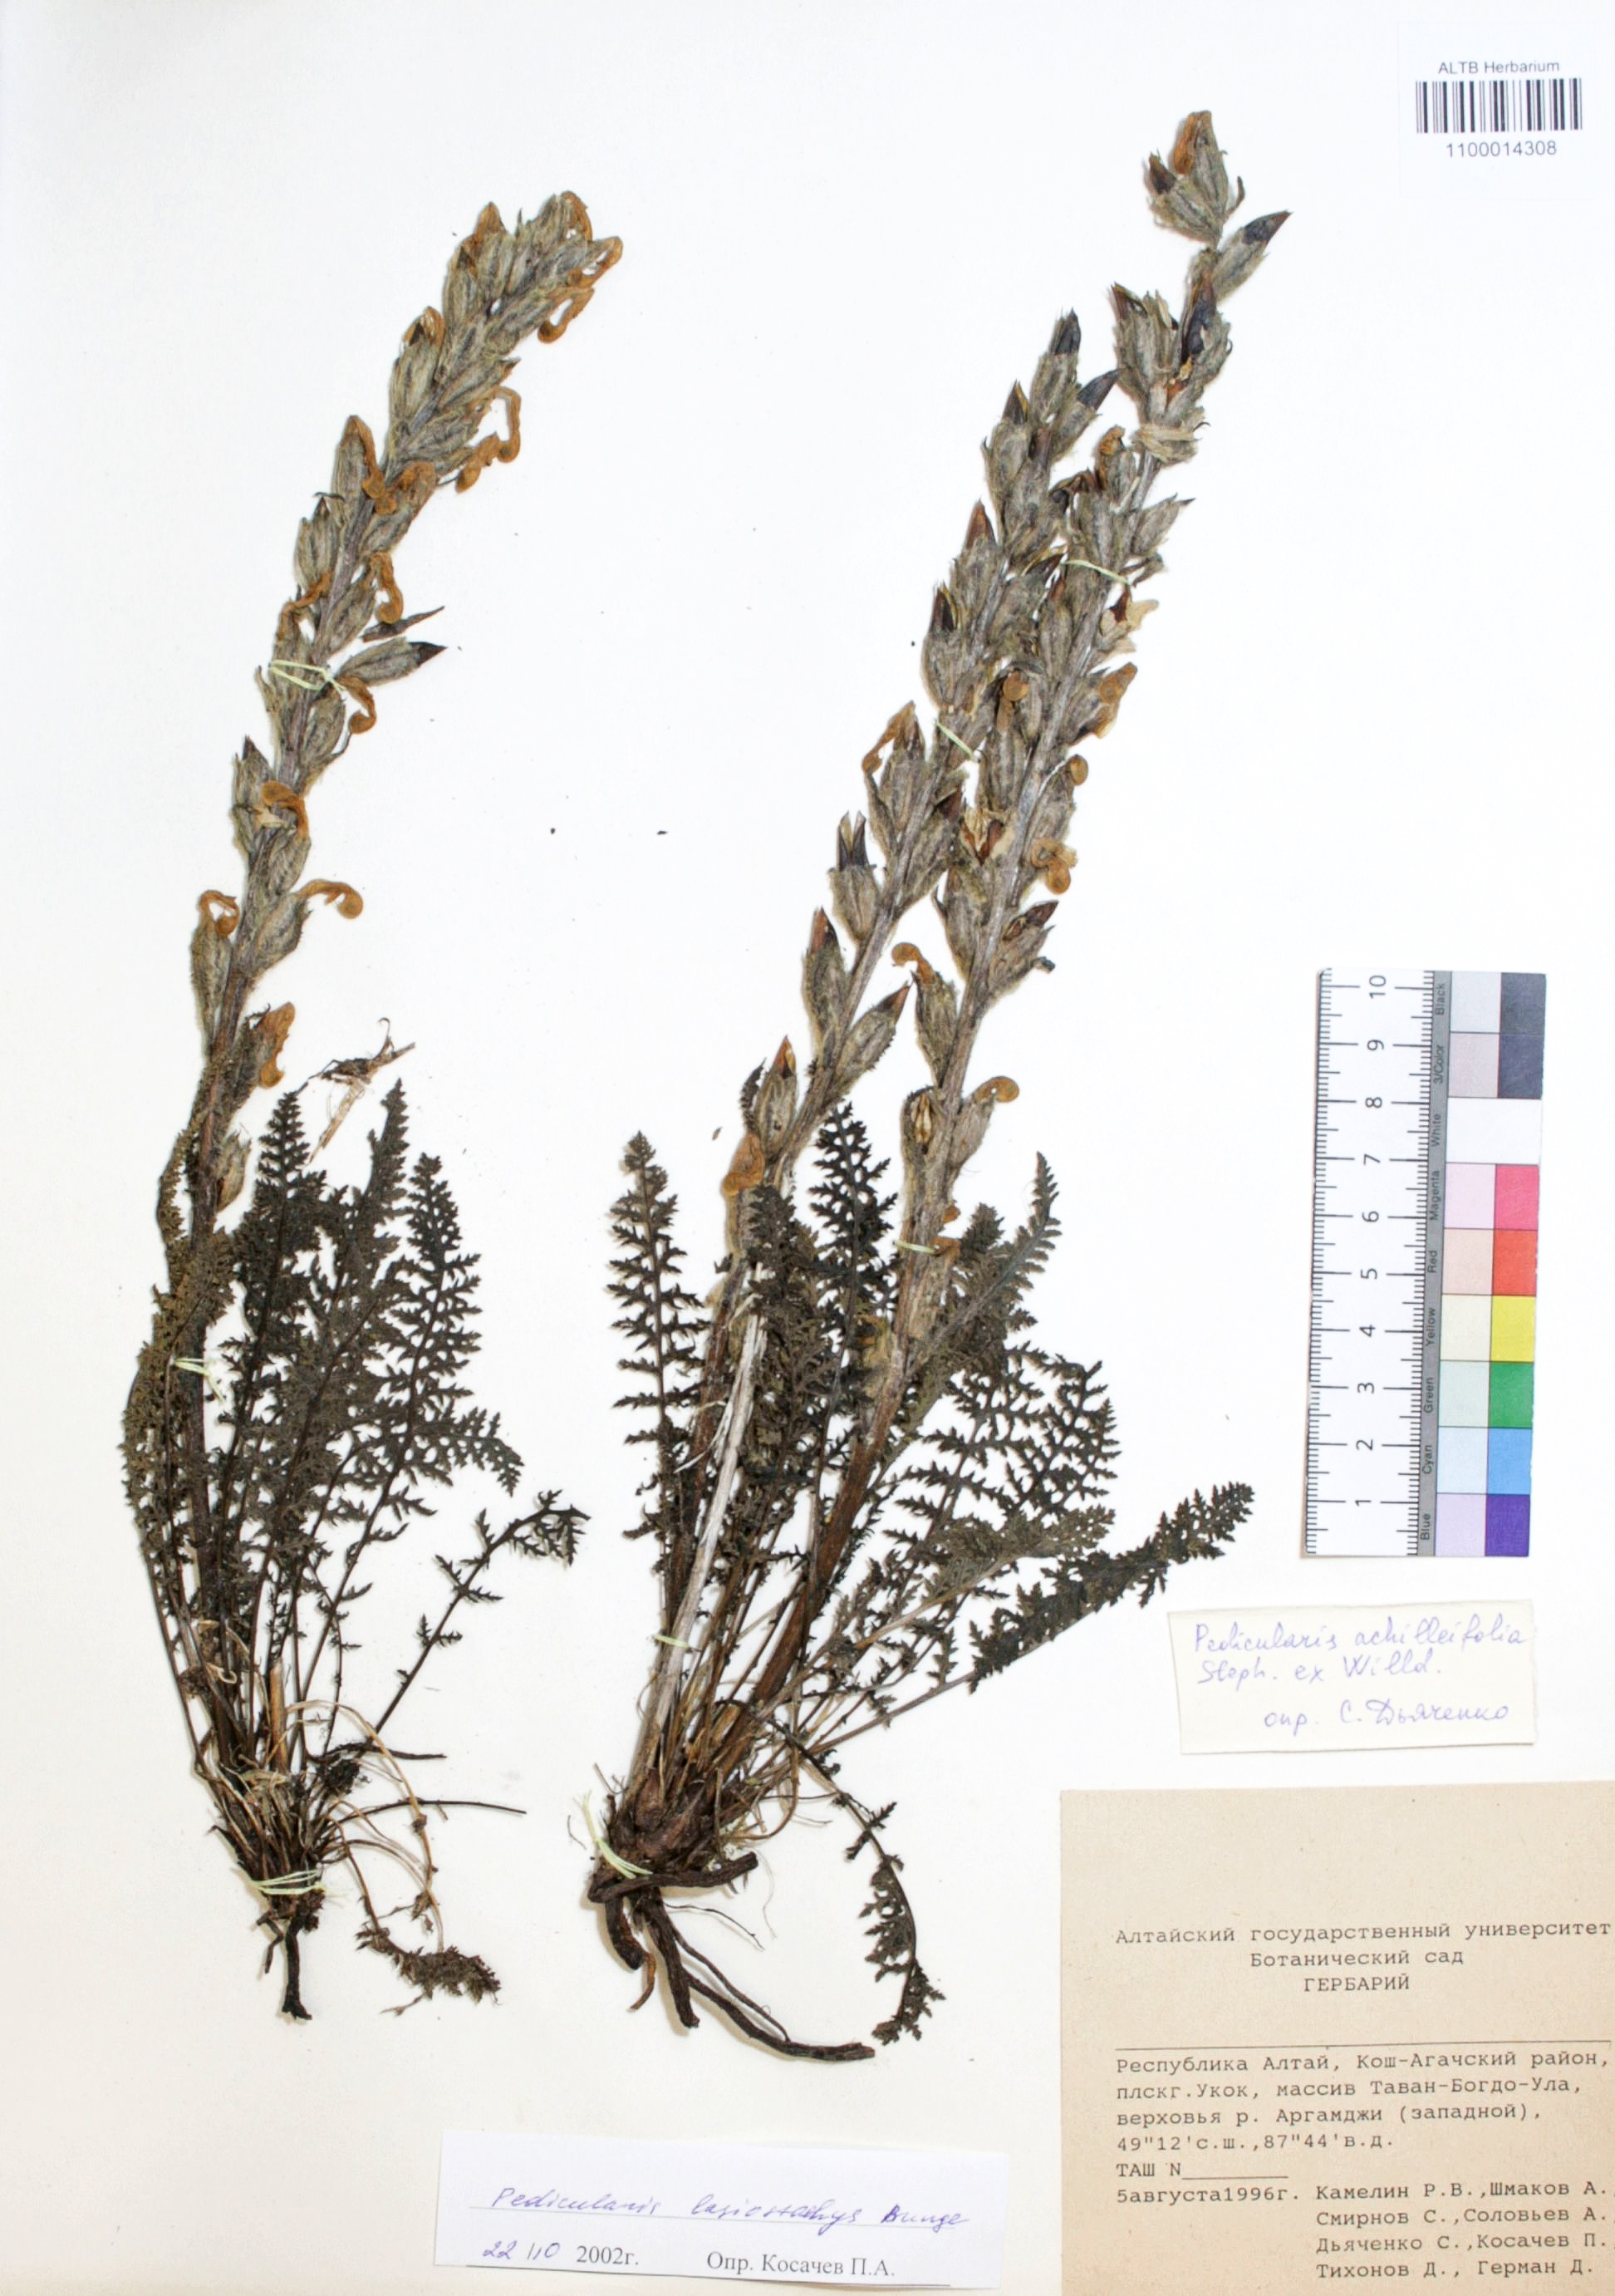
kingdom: Plantae
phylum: Tracheophyta
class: Magnoliopsida
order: Lamiales
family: Orobanchaceae
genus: Pedicularis
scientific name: Pedicularis achilleifolia
